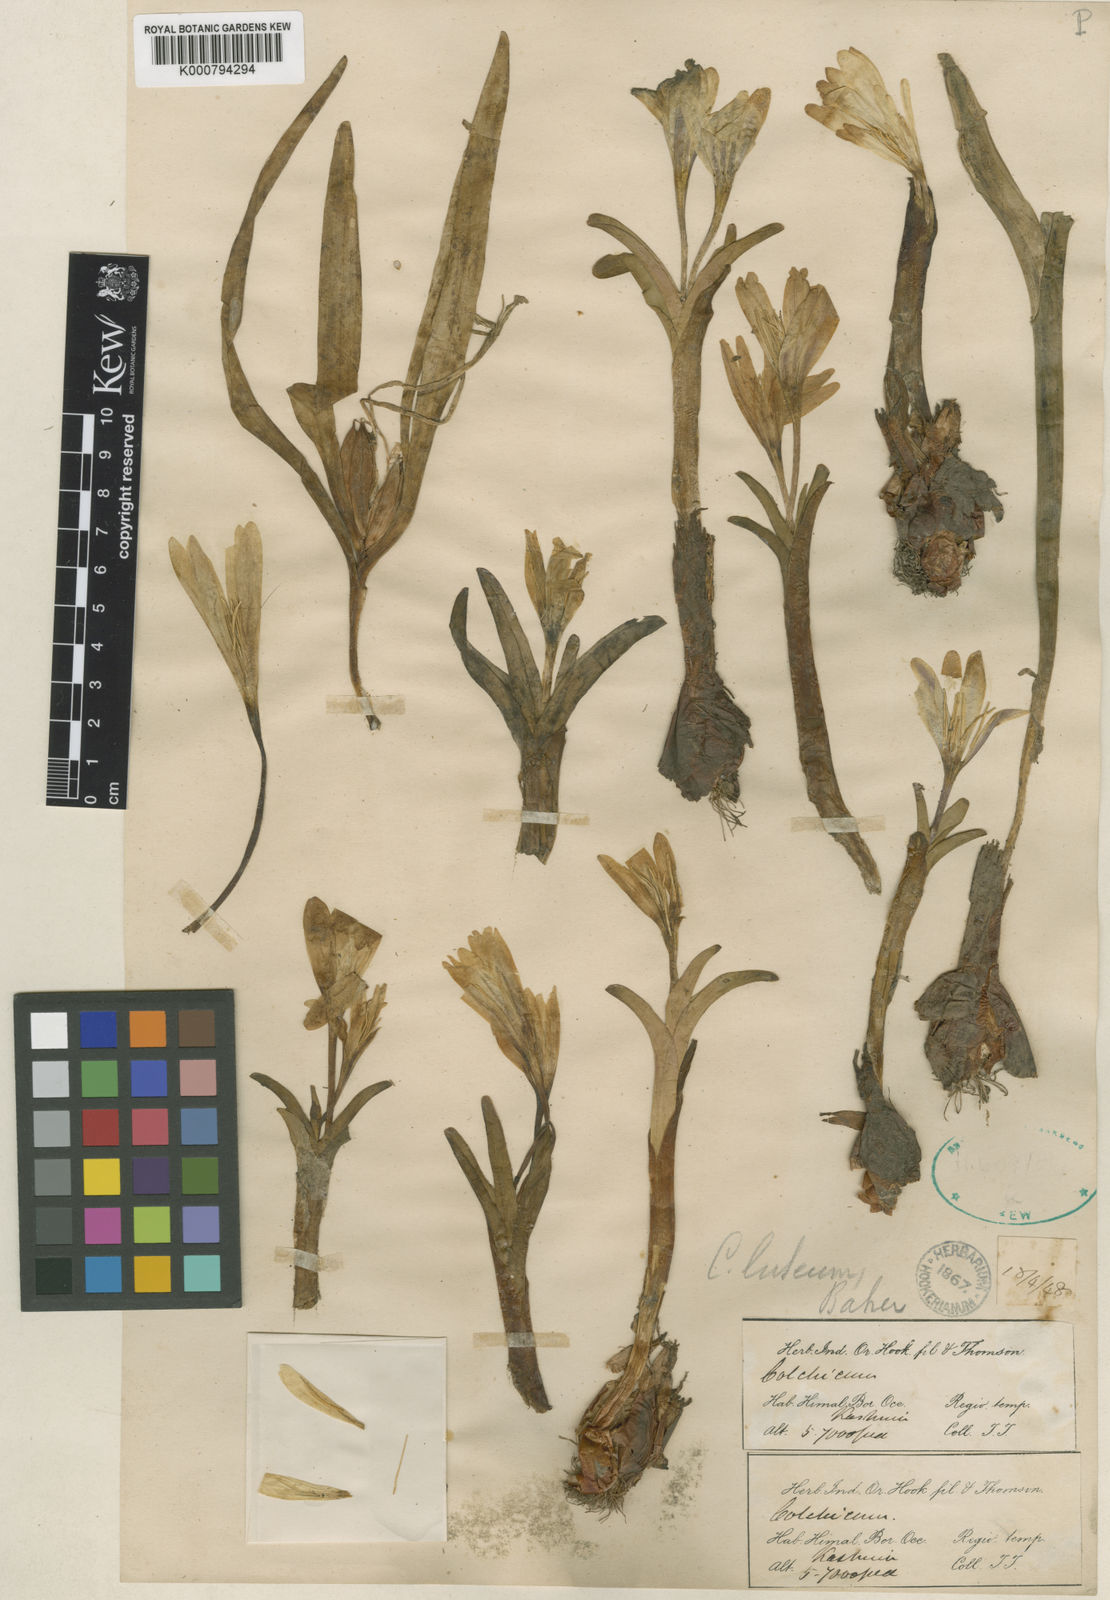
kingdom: Plantae
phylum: Tracheophyta
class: Liliopsida
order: Liliales
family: Colchicaceae
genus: Colchicum
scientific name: Colchicum luteum
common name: Indian colchicum
